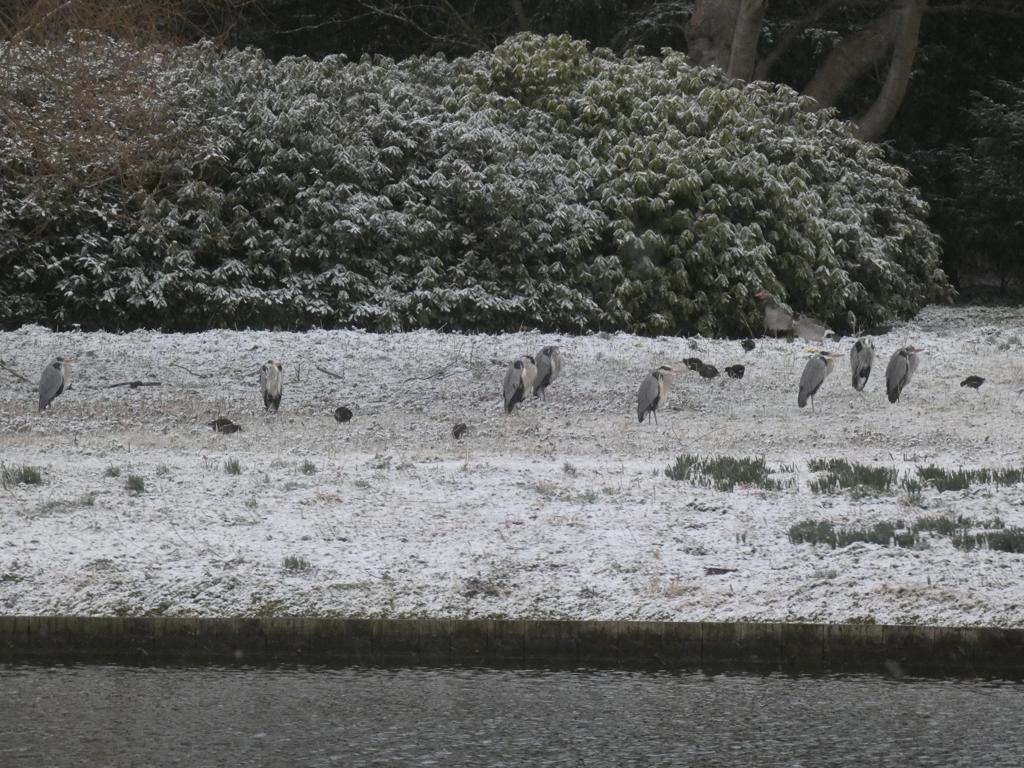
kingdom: Animalia
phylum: Chordata
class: Aves
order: Gruiformes
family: Rallidae
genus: Gallinula
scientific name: Gallinula chloropus
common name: Grønbenet rørhøne
